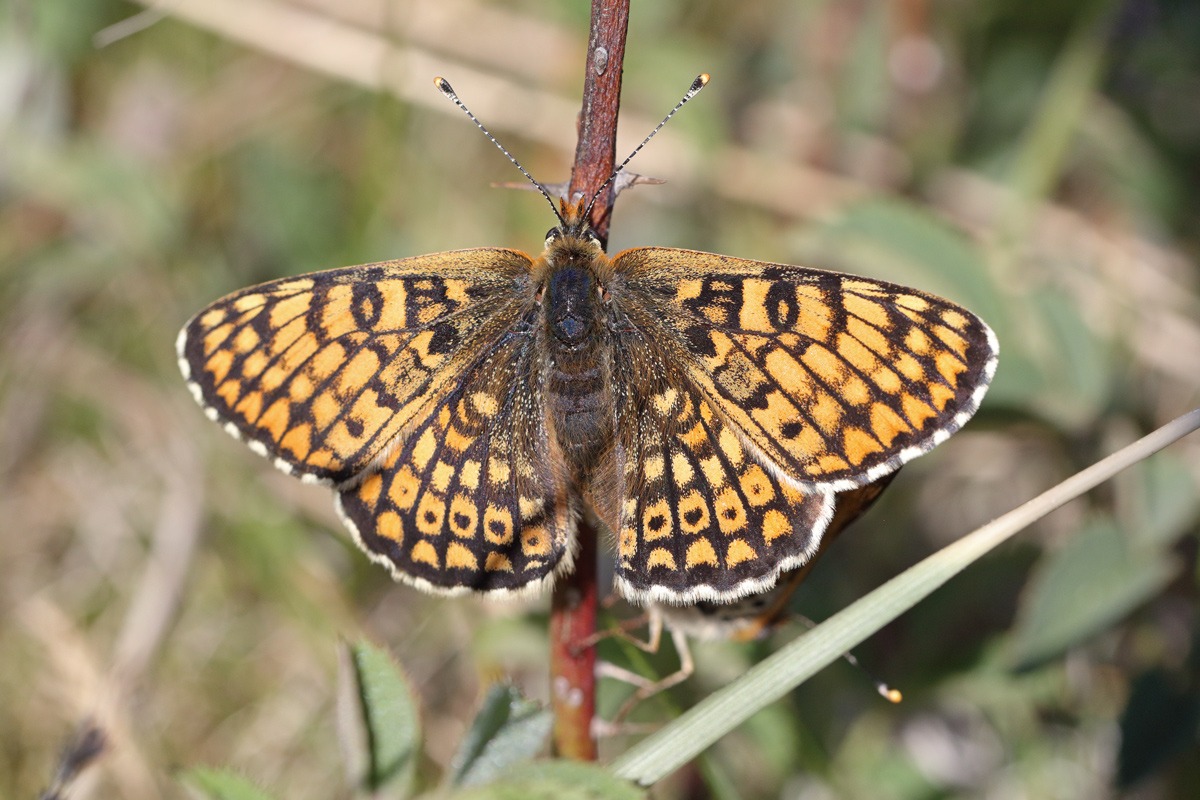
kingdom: Animalia
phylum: Arthropoda
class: Insecta
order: Lepidoptera
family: Nymphalidae
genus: Melitaea
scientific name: Melitaea cinxia
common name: Okkergul pletvinge
